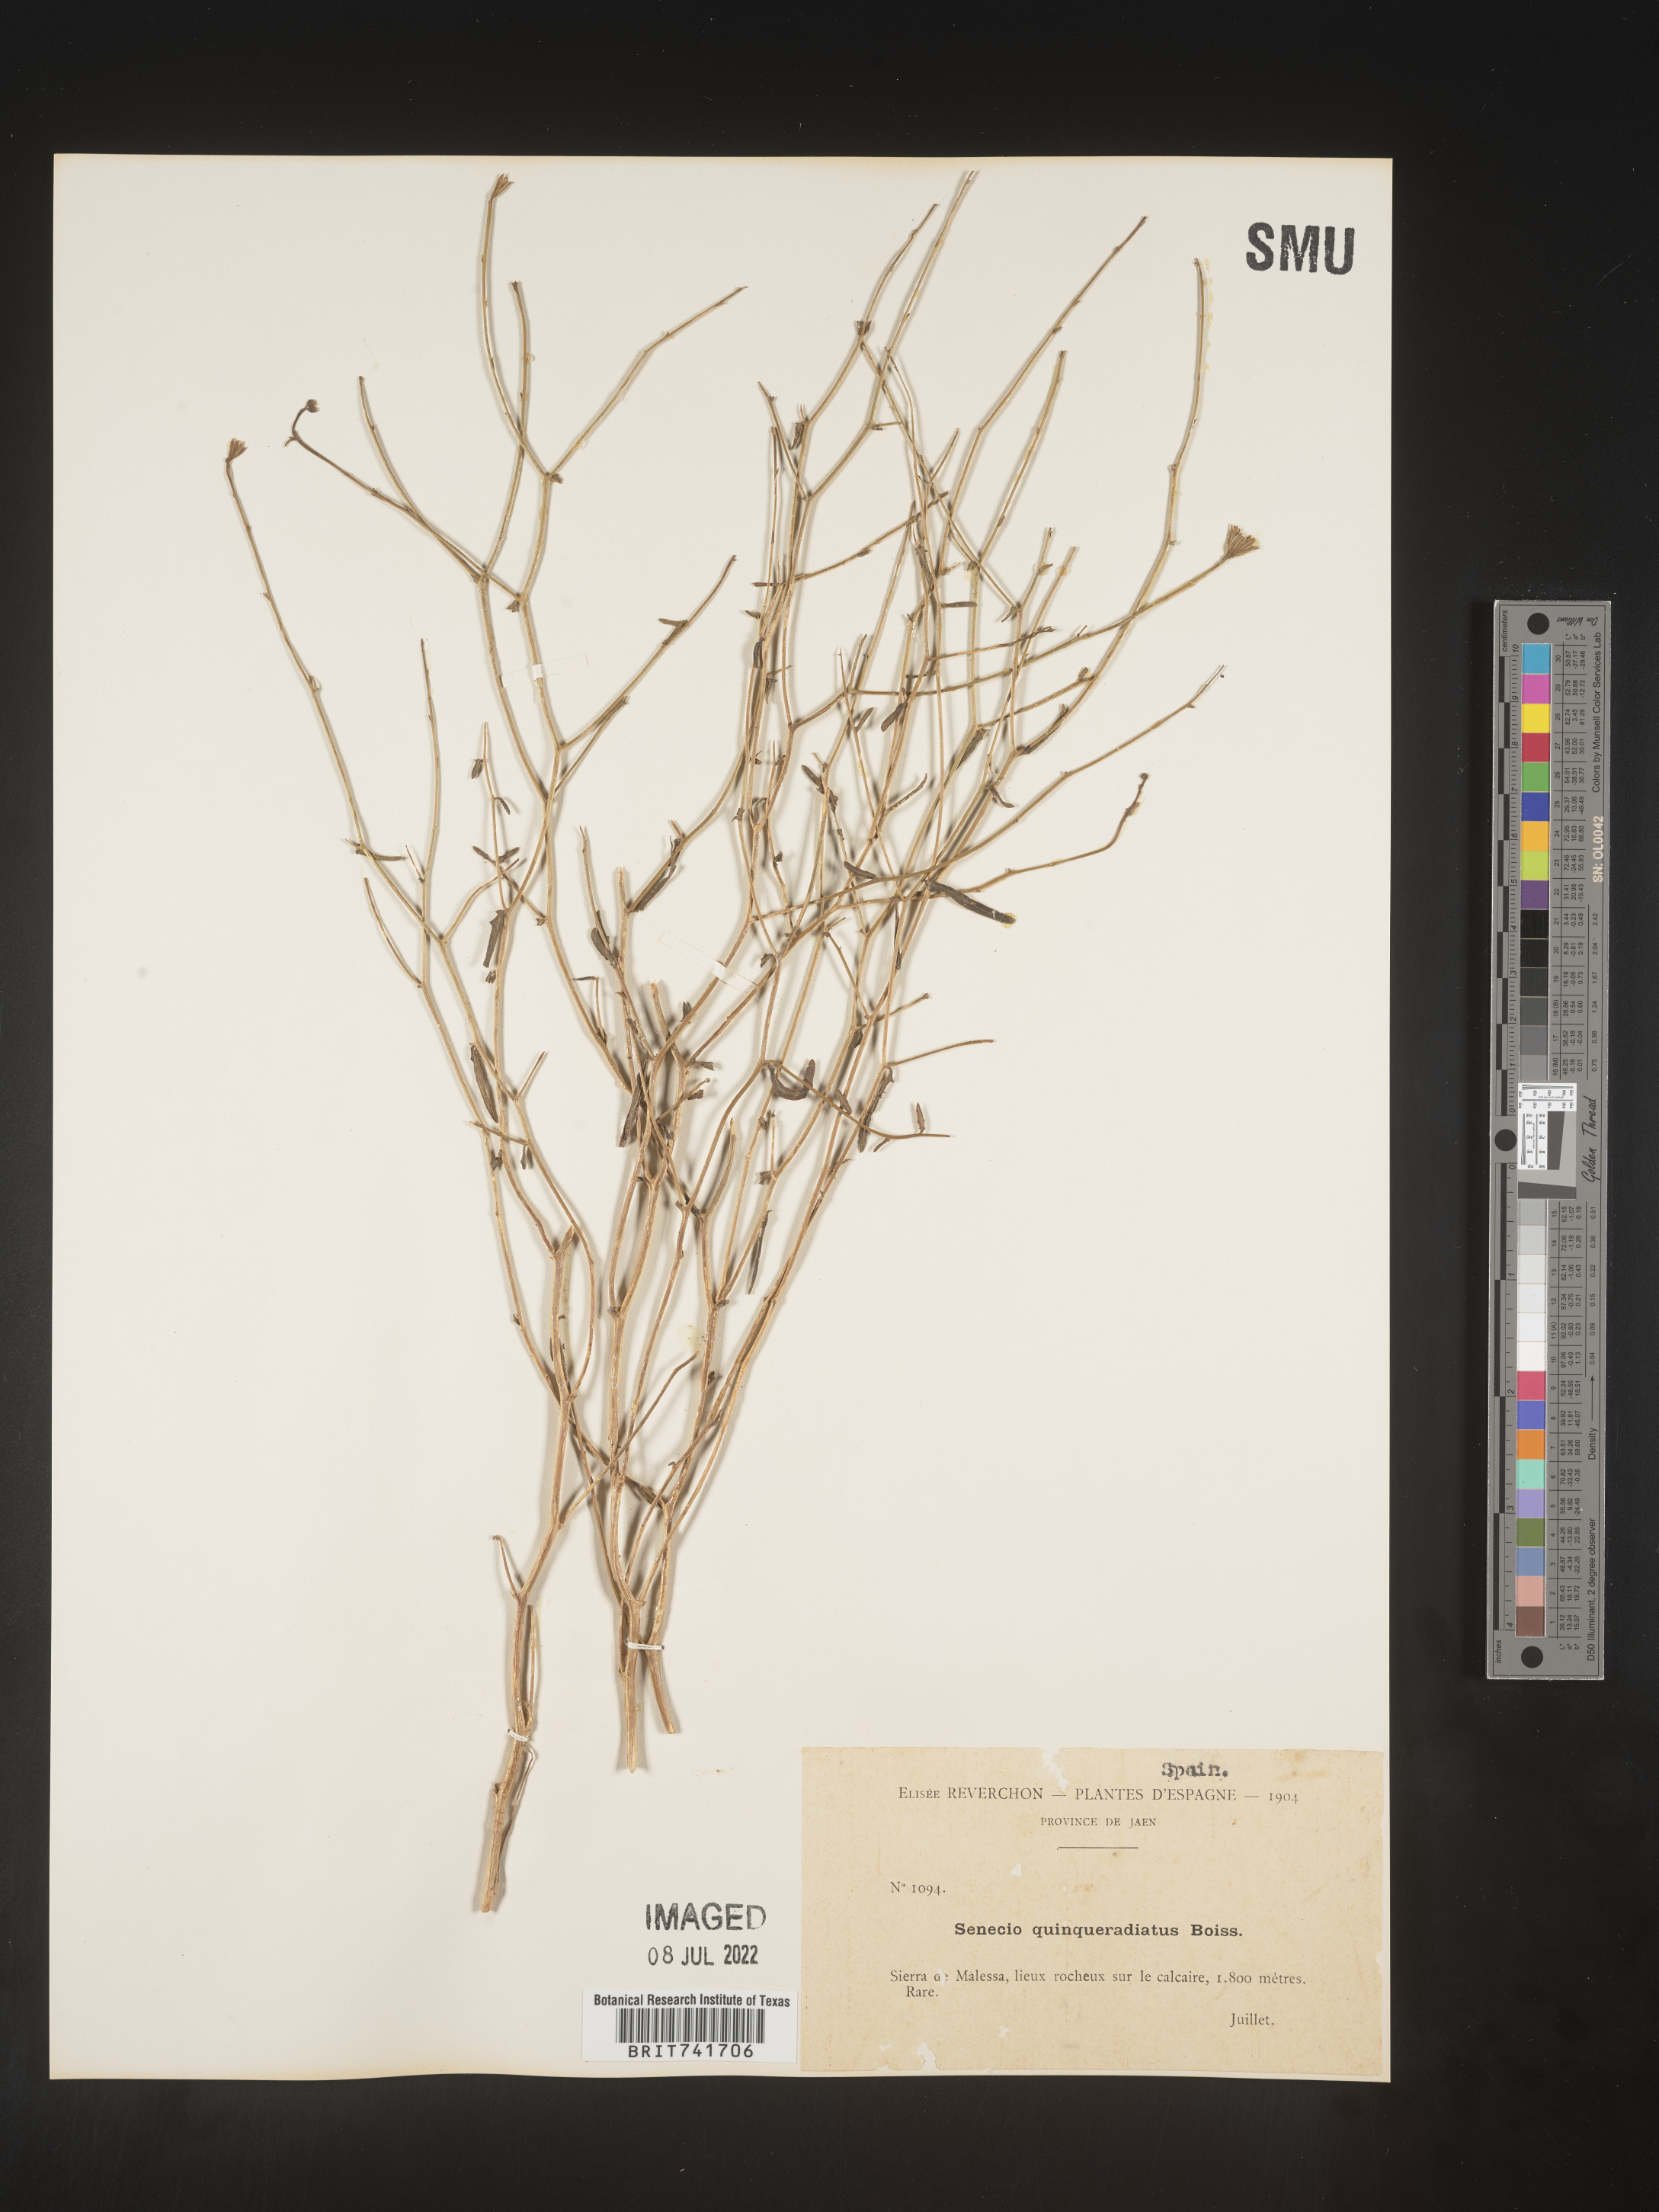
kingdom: Plantae
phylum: Tracheophyta
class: Magnoliopsida
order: Asterales
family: Asteraceae
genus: Senecio
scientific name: Senecio
